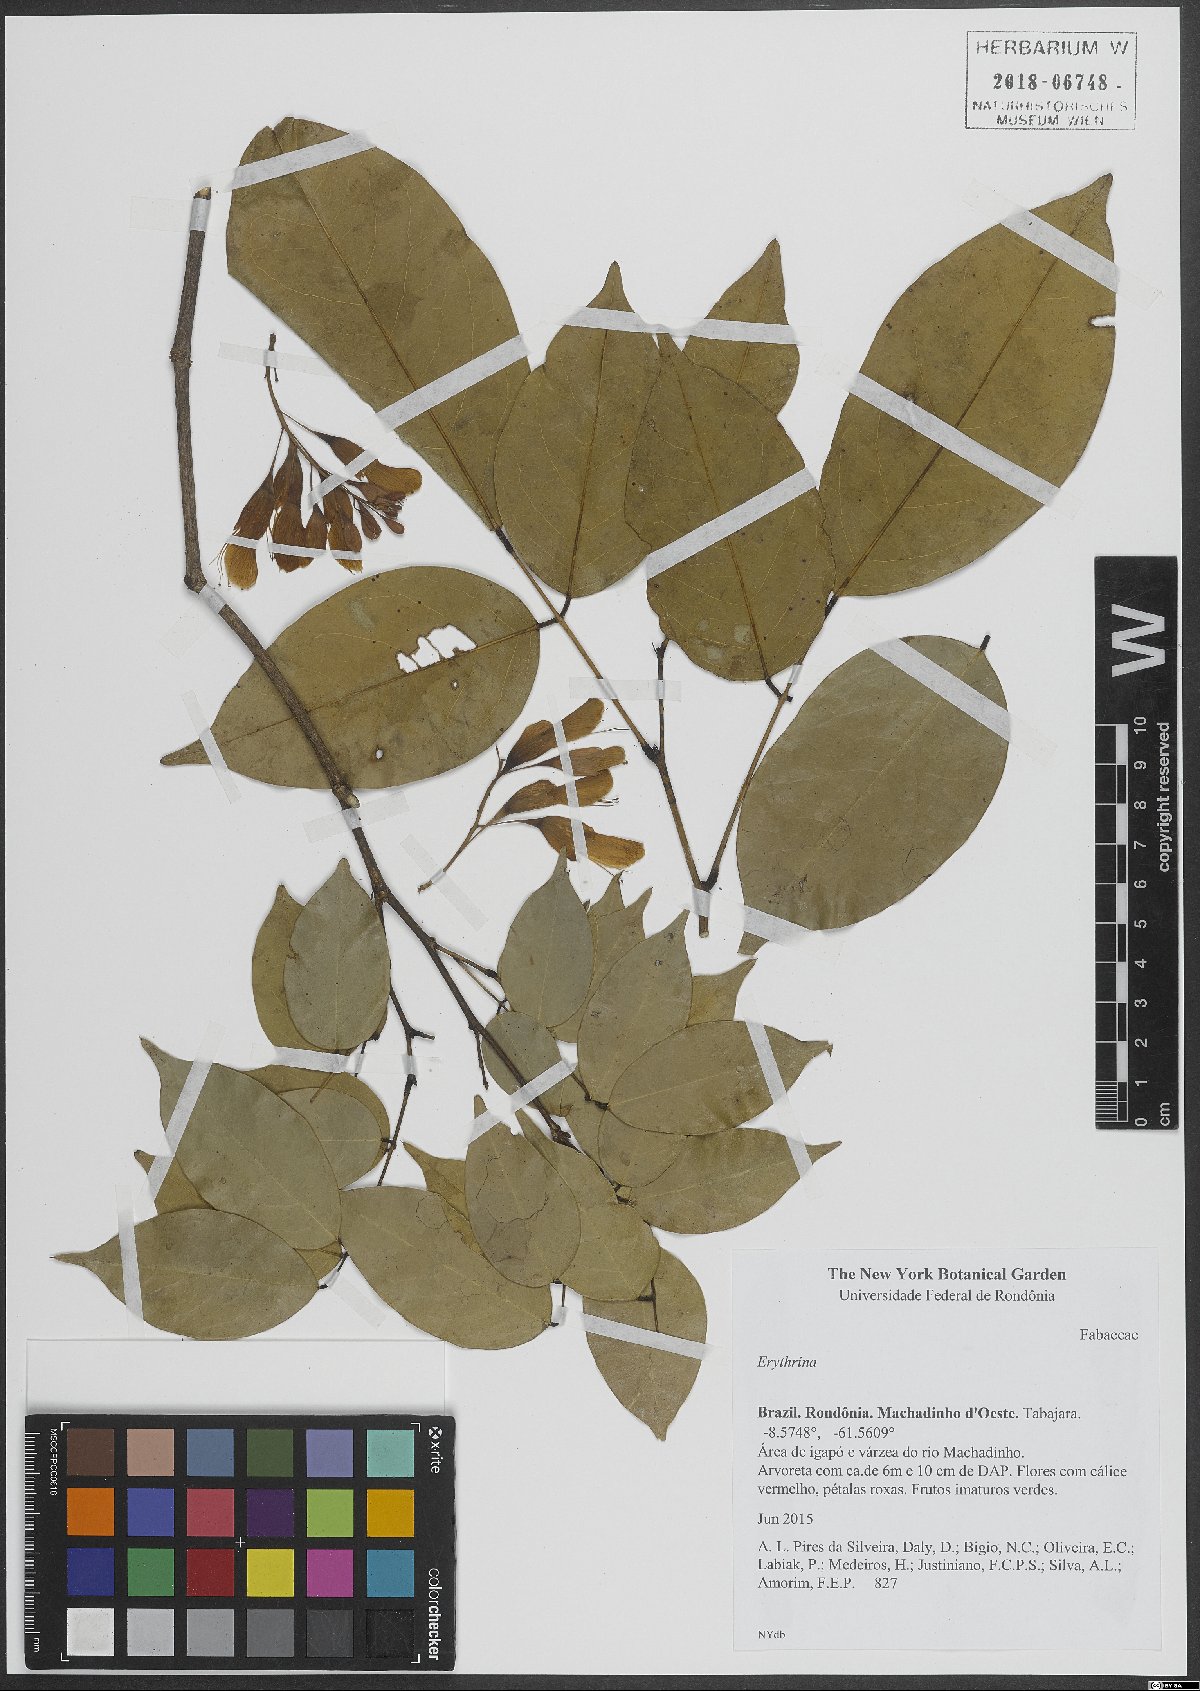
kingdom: Plantae
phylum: Tracheophyta
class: Magnoliopsida
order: Fabales
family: Fabaceae
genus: Erythrina
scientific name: Erythrina
